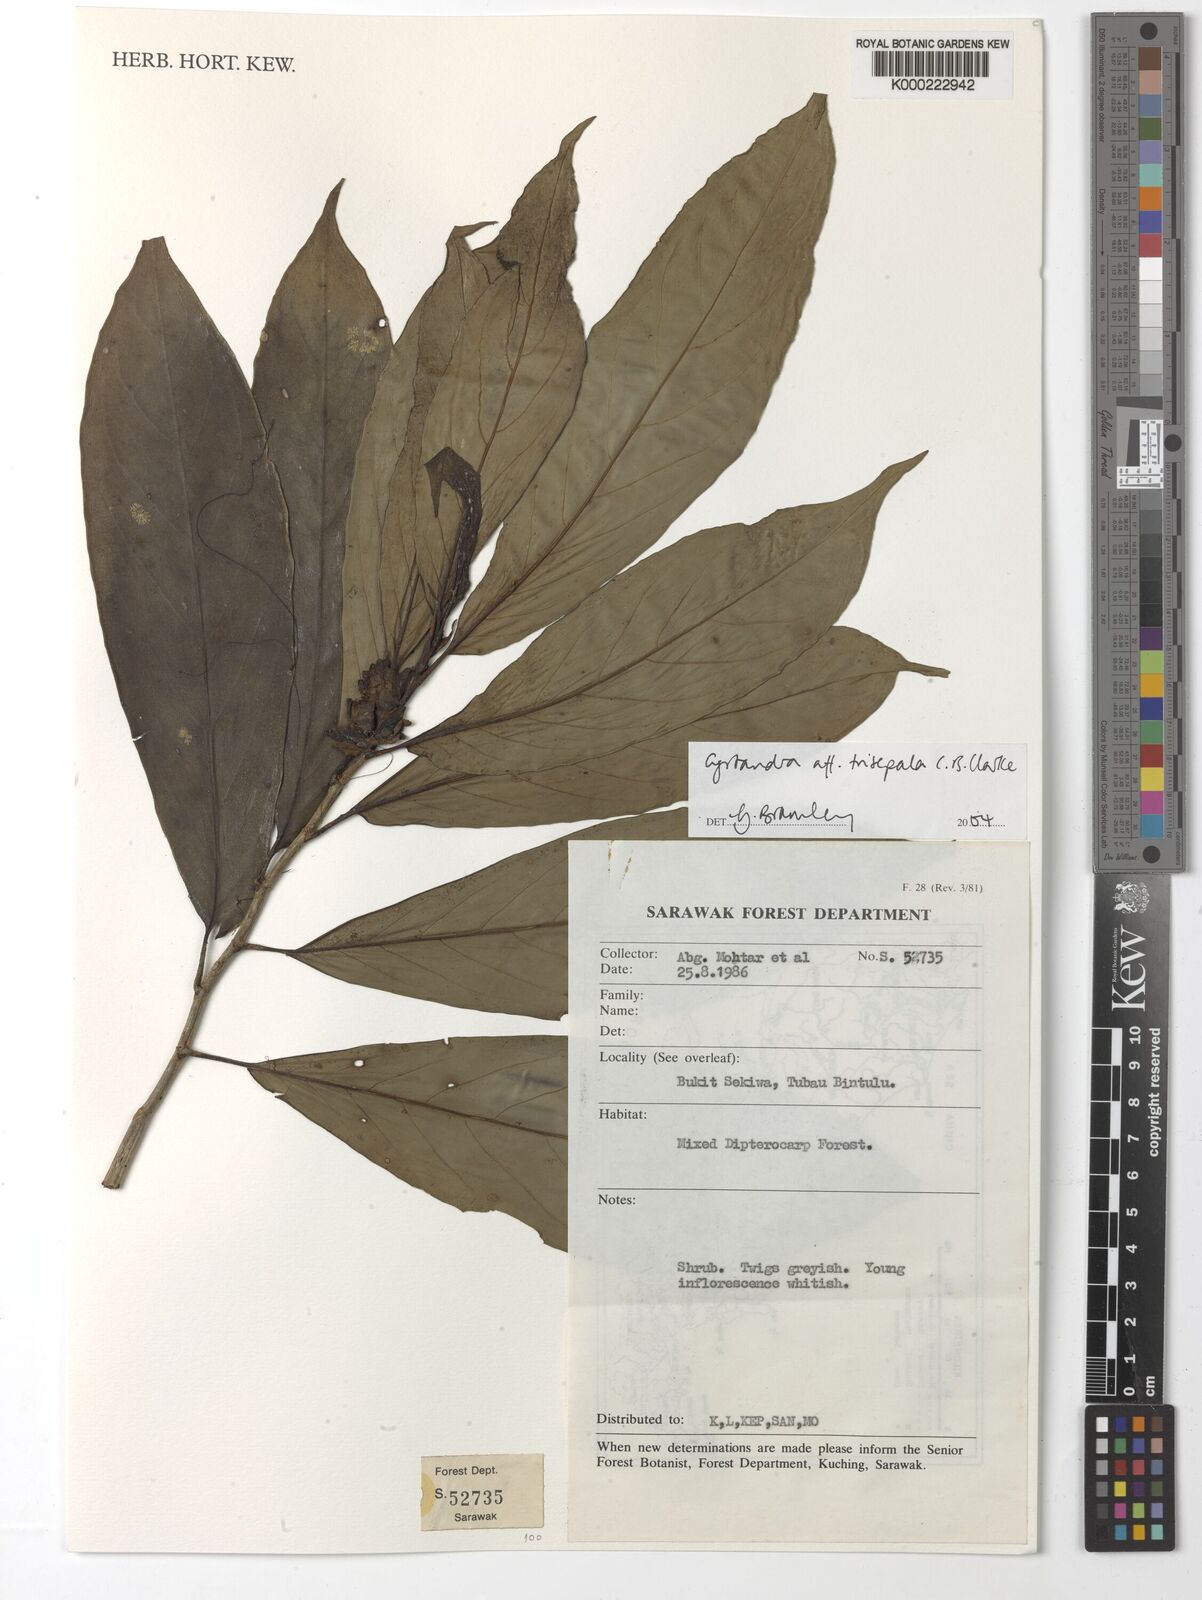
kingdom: Plantae
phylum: Tracheophyta
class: Magnoliopsida
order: Lamiales
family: Gesneriaceae
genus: Cyrtandra
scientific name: Cyrtandra trisepala
